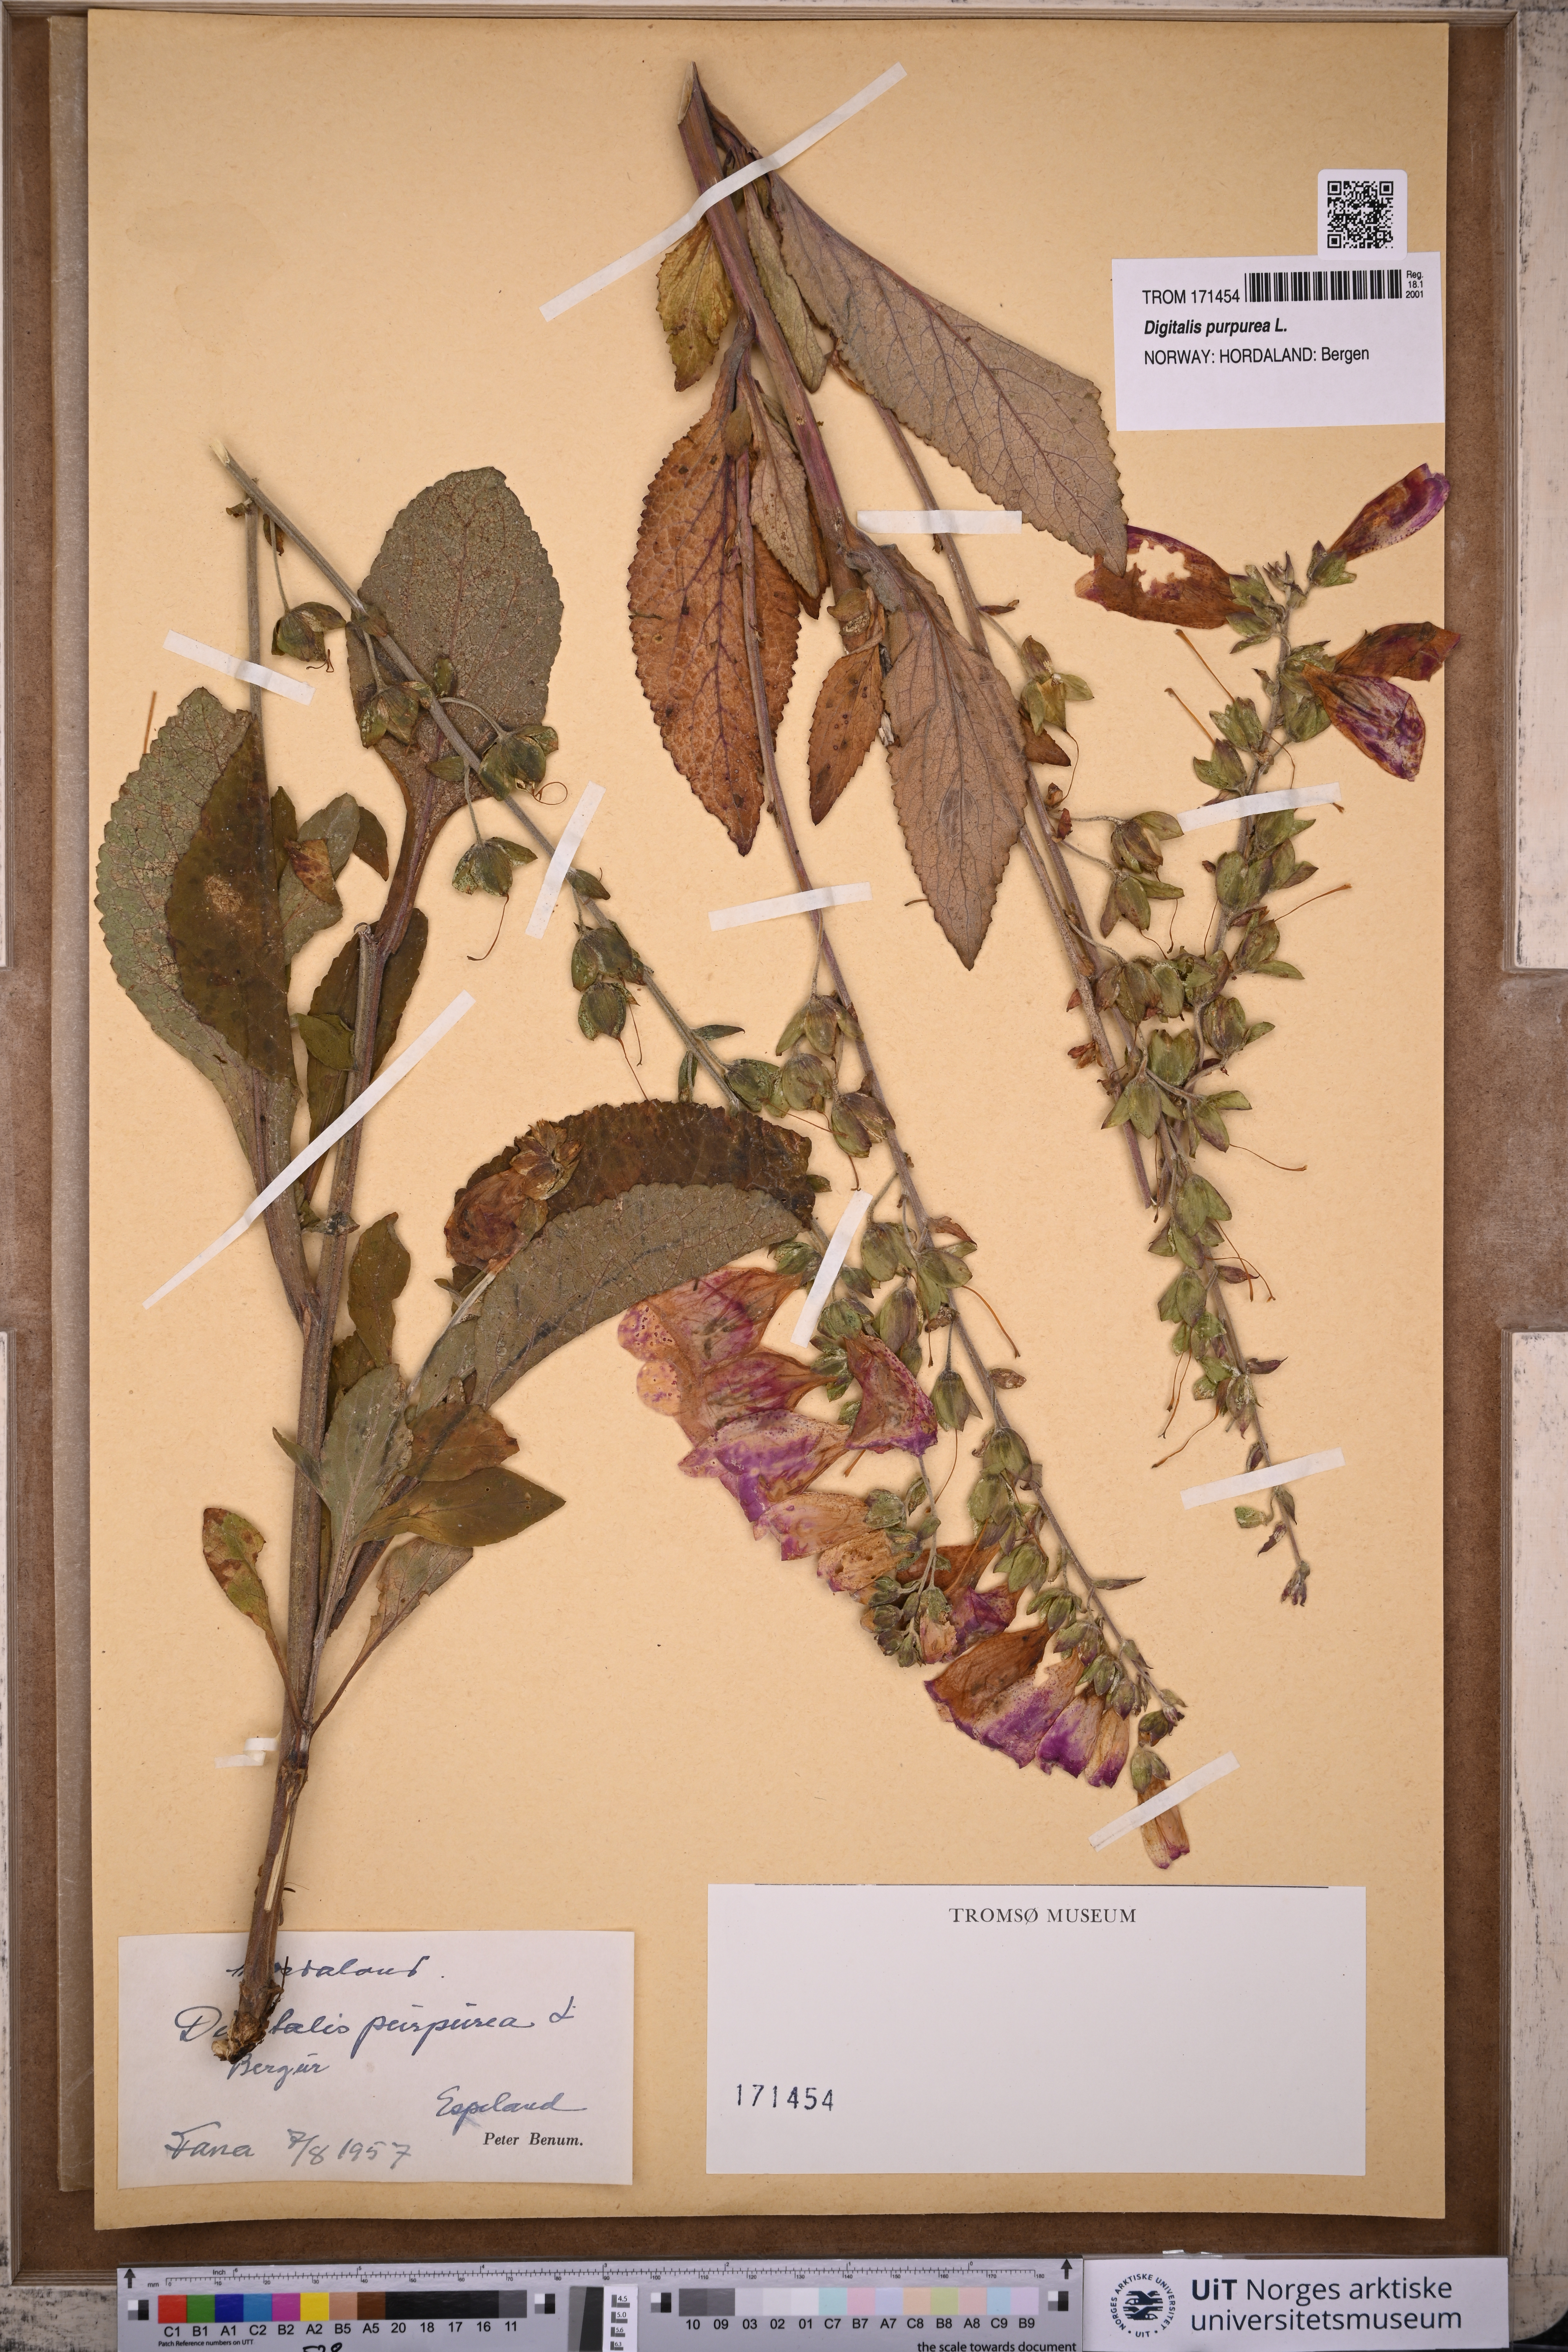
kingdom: Plantae
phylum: Tracheophyta
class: Magnoliopsida
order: Lamiales
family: Plantaginaceae
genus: Digitalis
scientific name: Digitalis purpurea
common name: Foxglove
